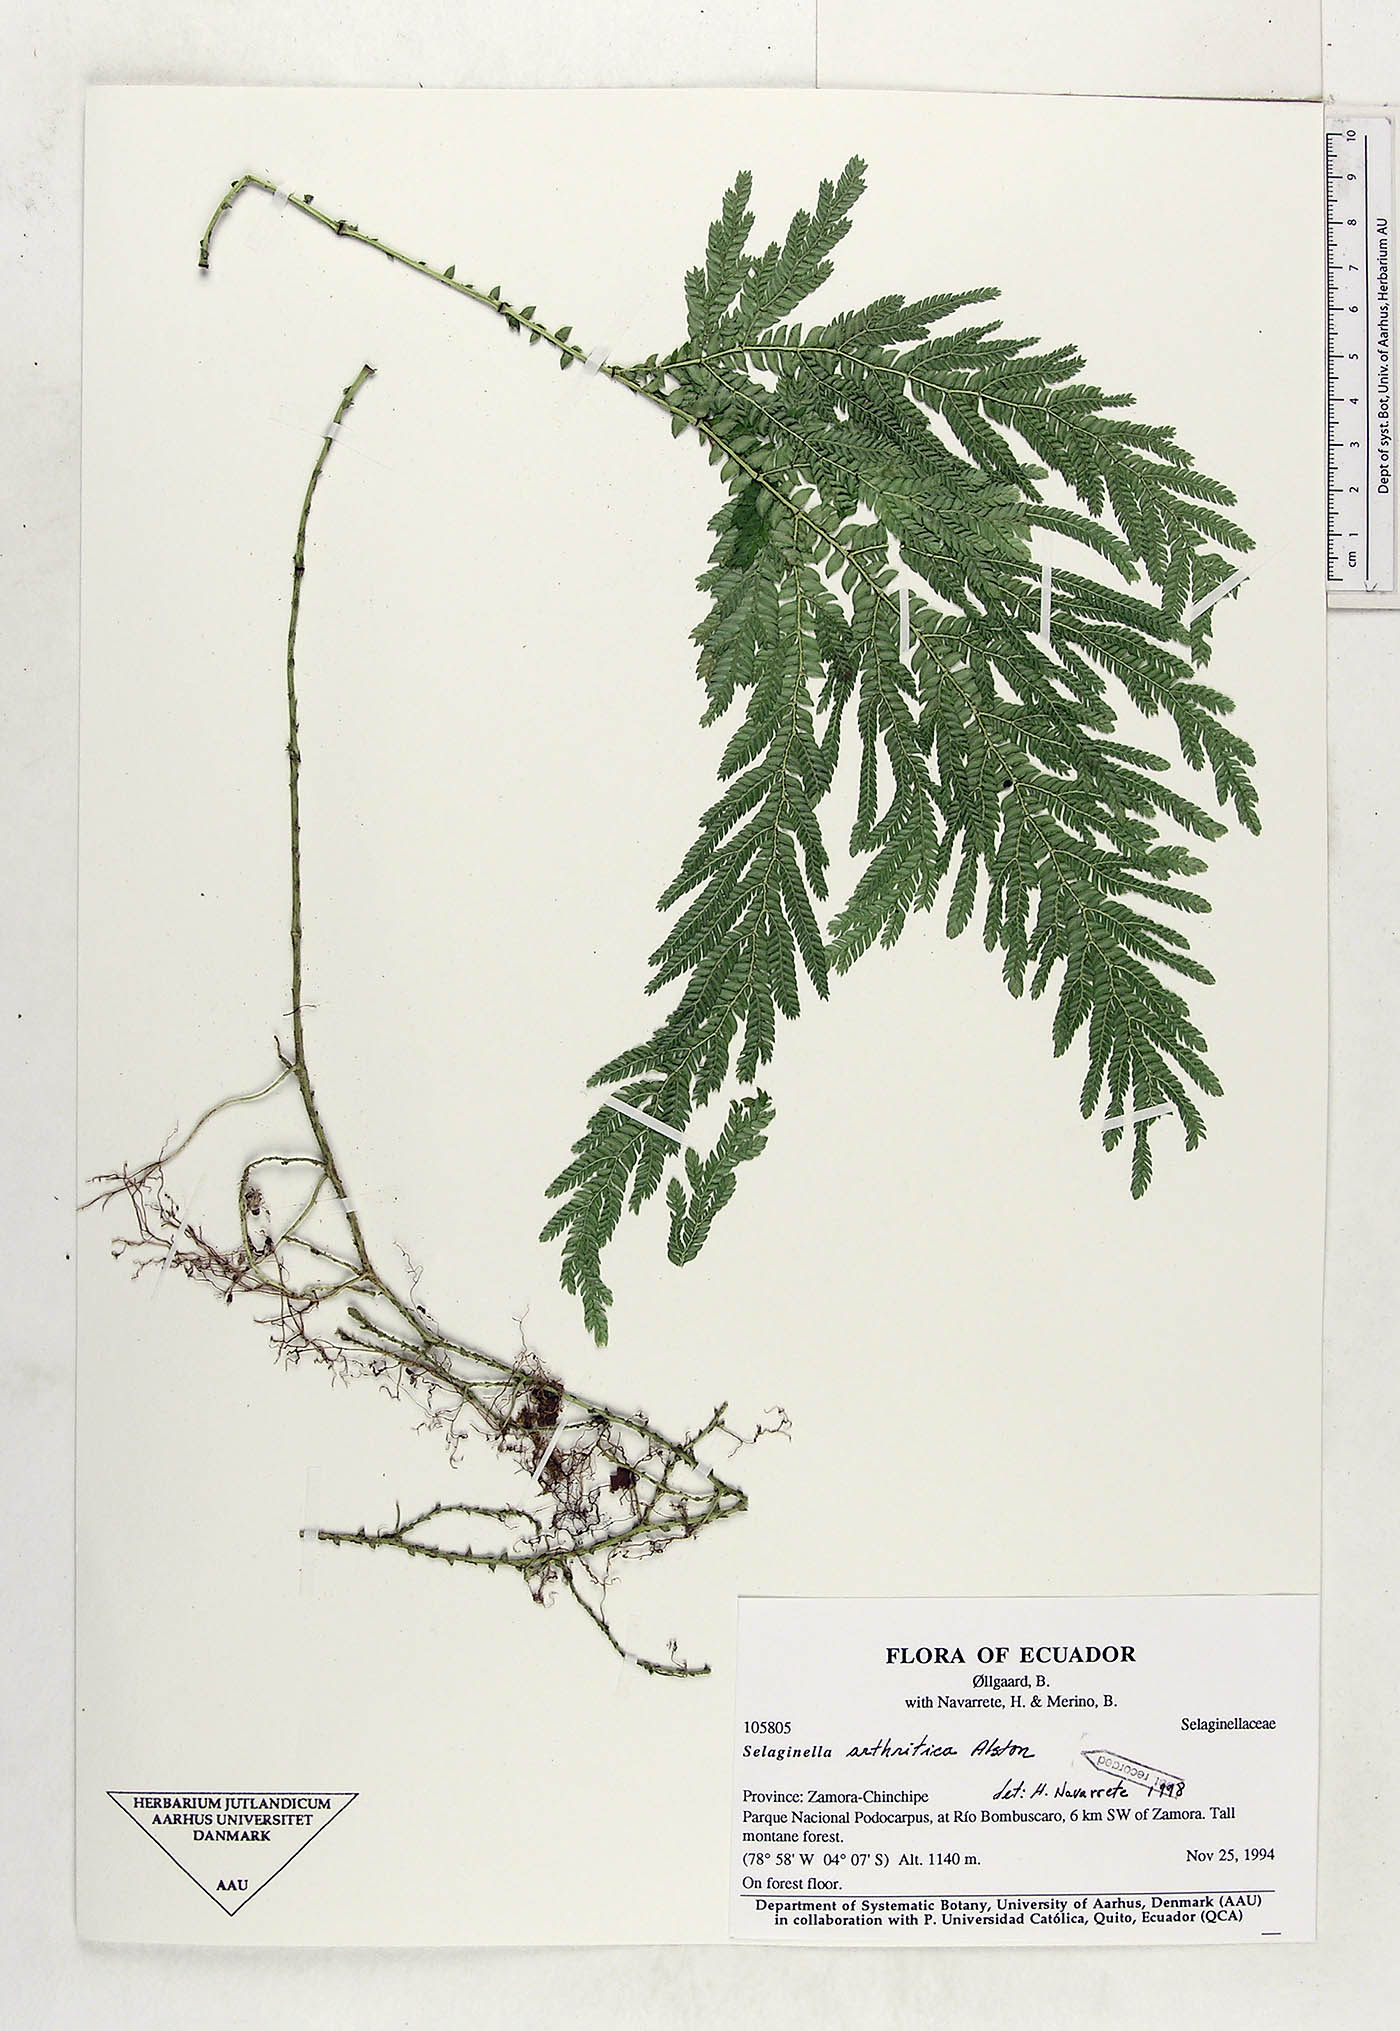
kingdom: Plantae
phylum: Tracheophyta
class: Lycopodiopsida
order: Selaginellales
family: Selaginellaceae
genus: Selaginella
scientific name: Selaginella arthritica
